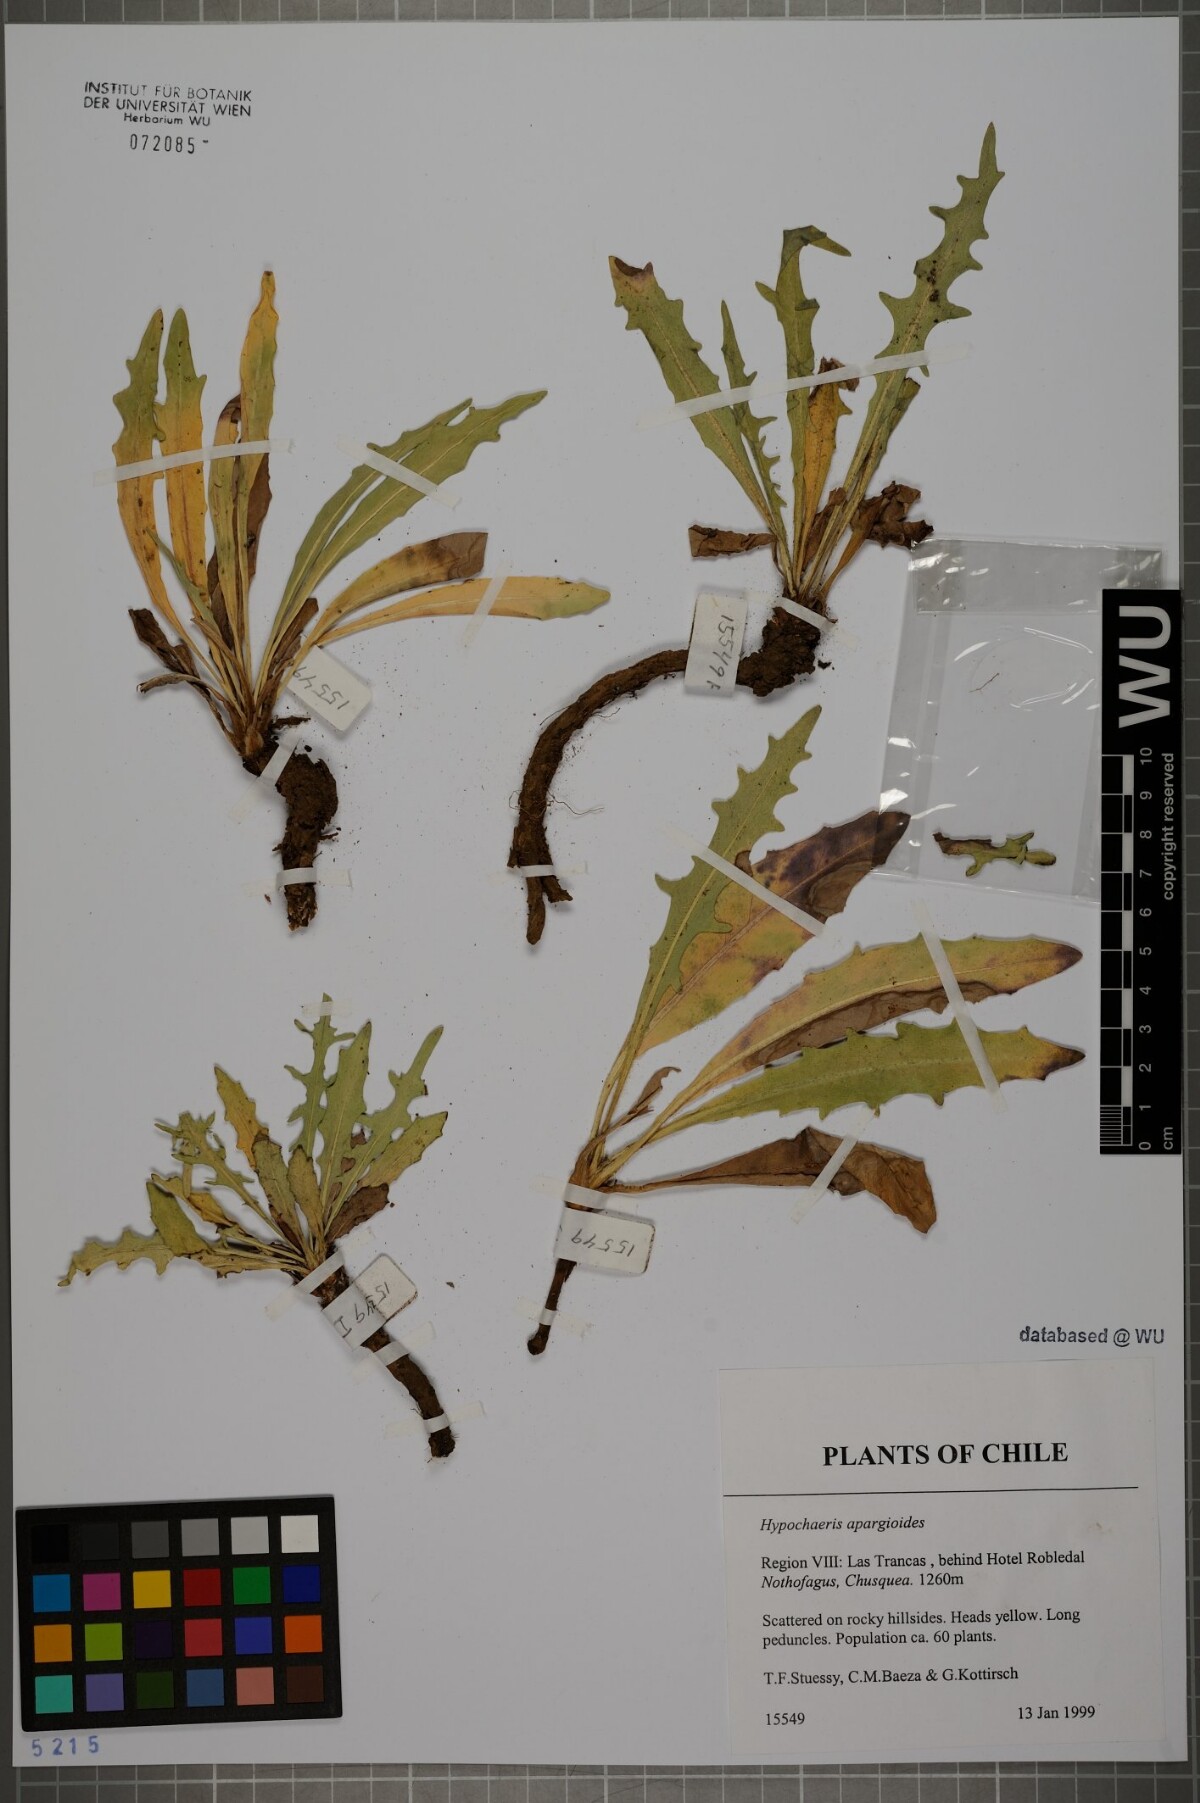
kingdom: Plantae
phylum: Tracheophyta
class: Magnoliopsida
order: Asterales
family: Asteraceae
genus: Hypochaeris
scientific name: Hypochaeris apargioides
